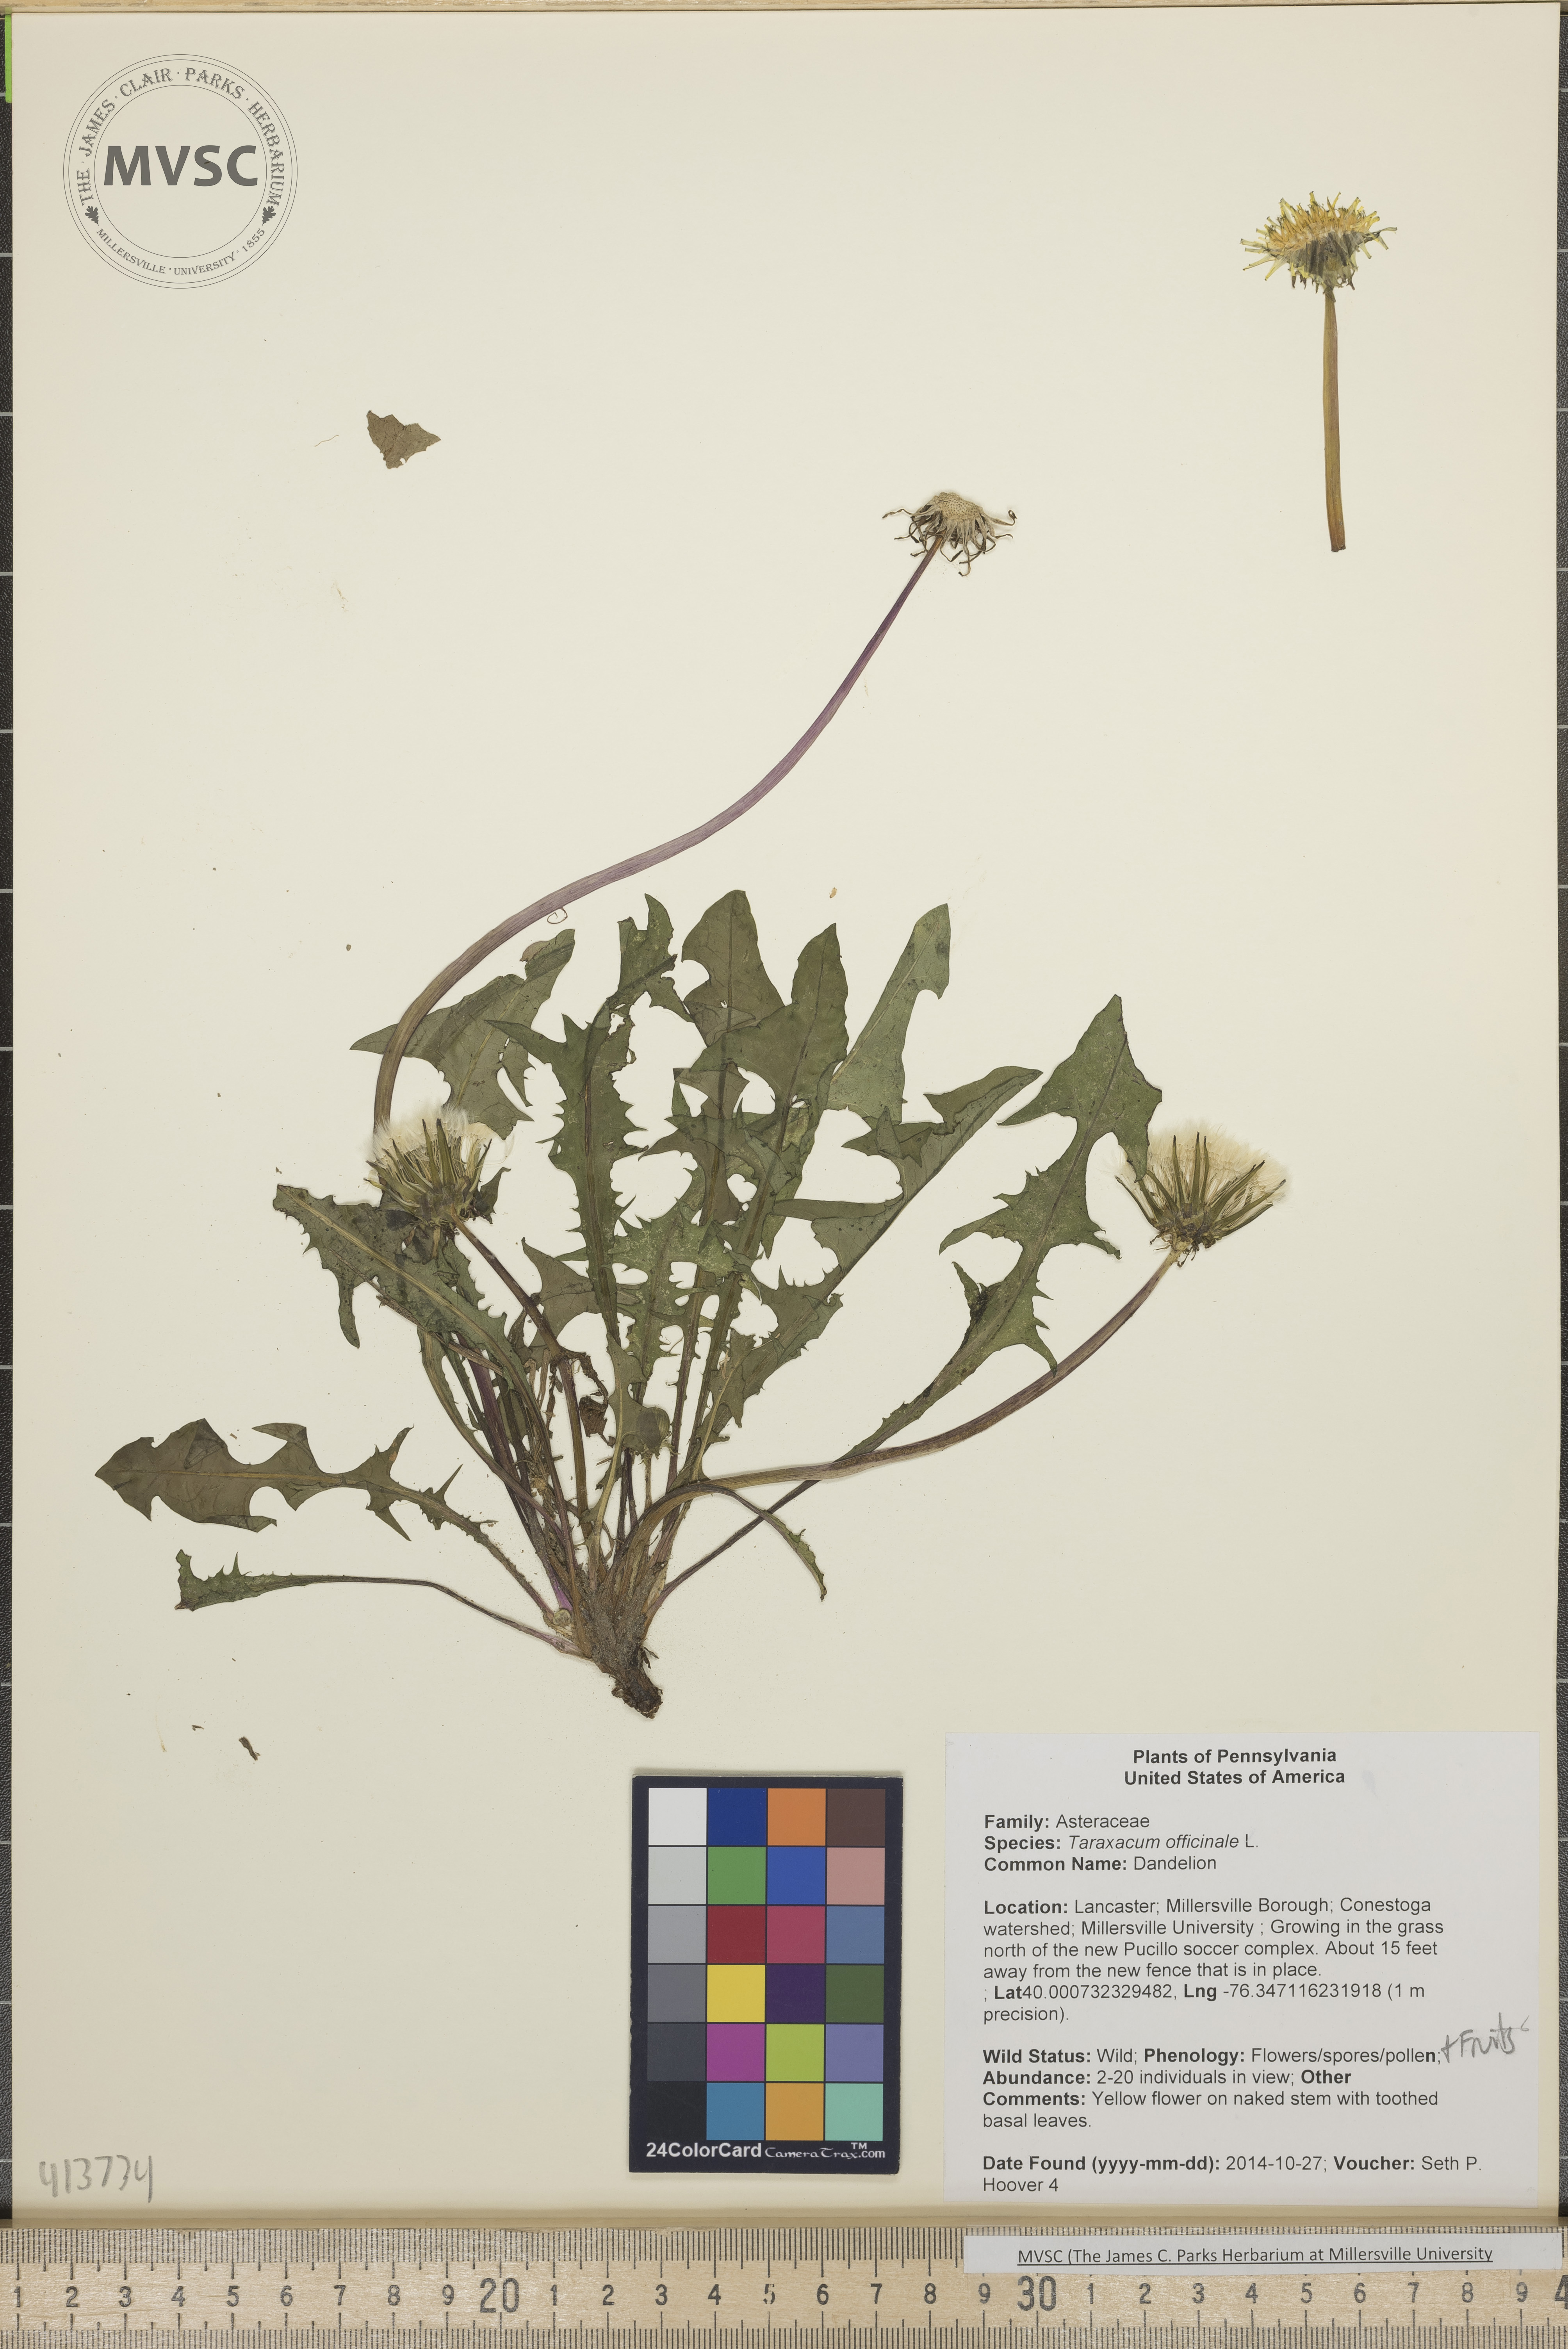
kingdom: Plantae
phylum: Tracheophyta
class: Magnoliopsida
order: Asterales
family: Asteraceae
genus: Taraxacum
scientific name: Taraxacum officinale
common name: Dandelion
